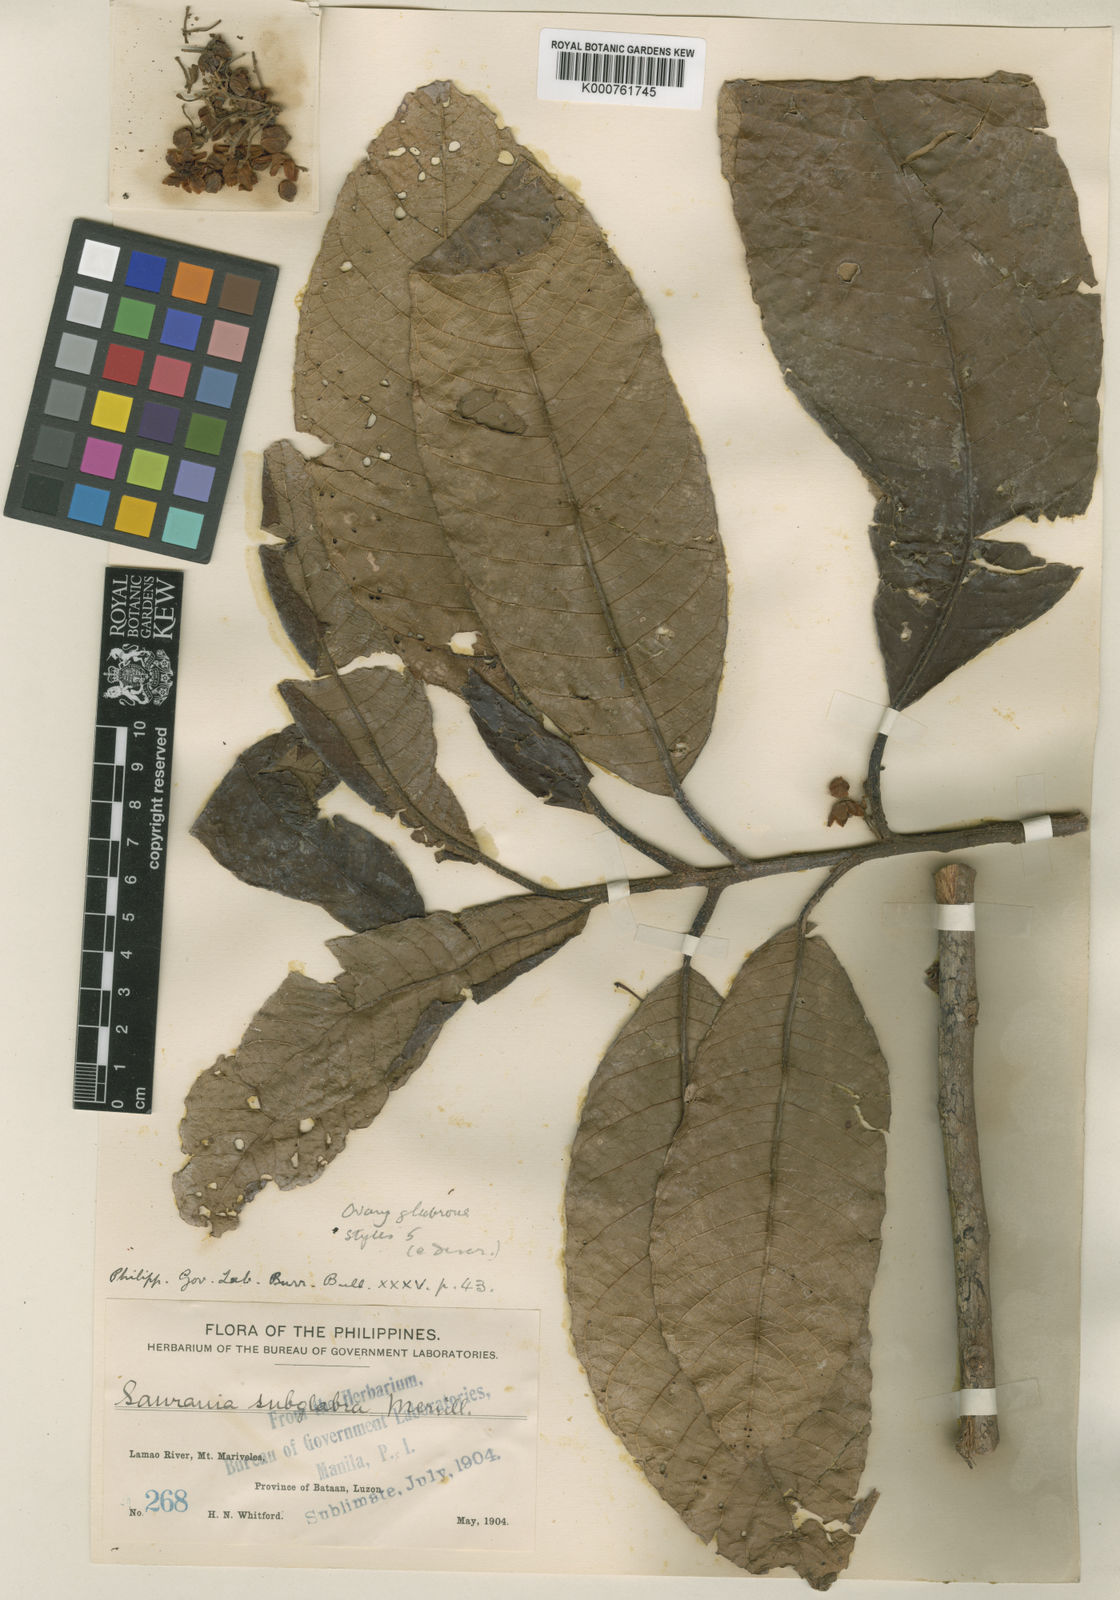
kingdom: Plantae
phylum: Tracheophyta
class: Magnoliopsida
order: Ericales
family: Actinidiaceae
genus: Saurauia
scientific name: Saurauia polysperma
